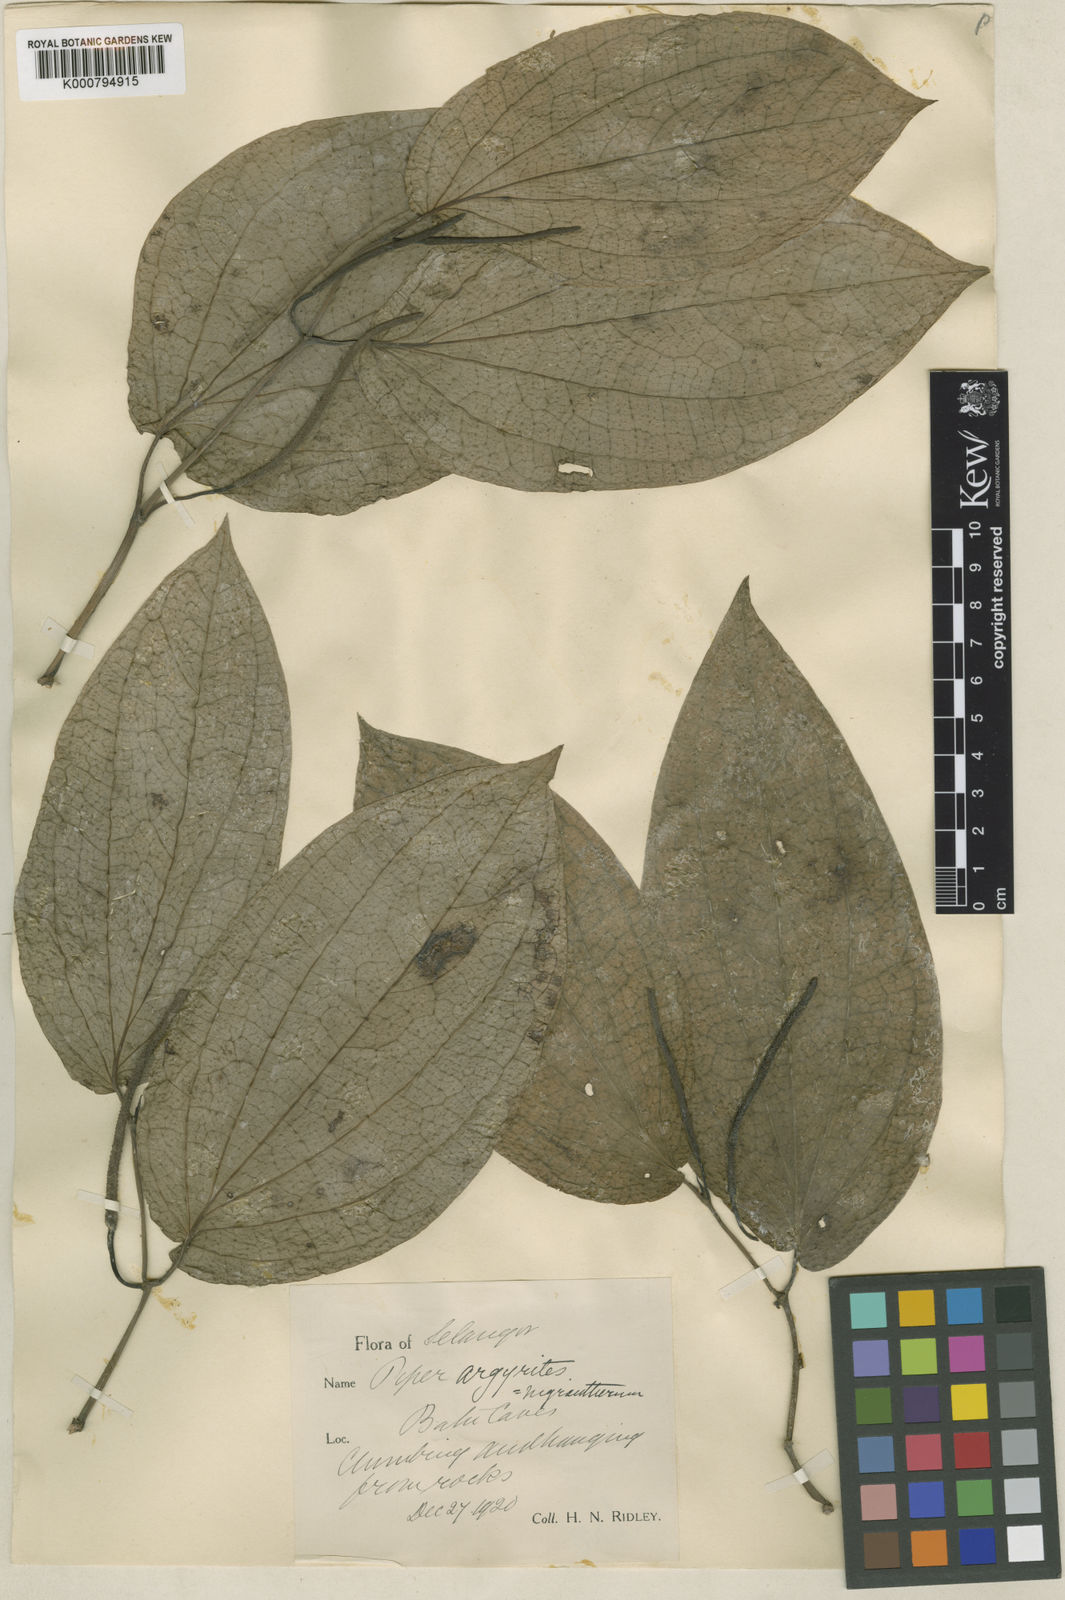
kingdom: Plantae
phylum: Tracheophyta
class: Magnoliopsida
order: Piperales
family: Piperaceae
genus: Piper
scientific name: Piper
